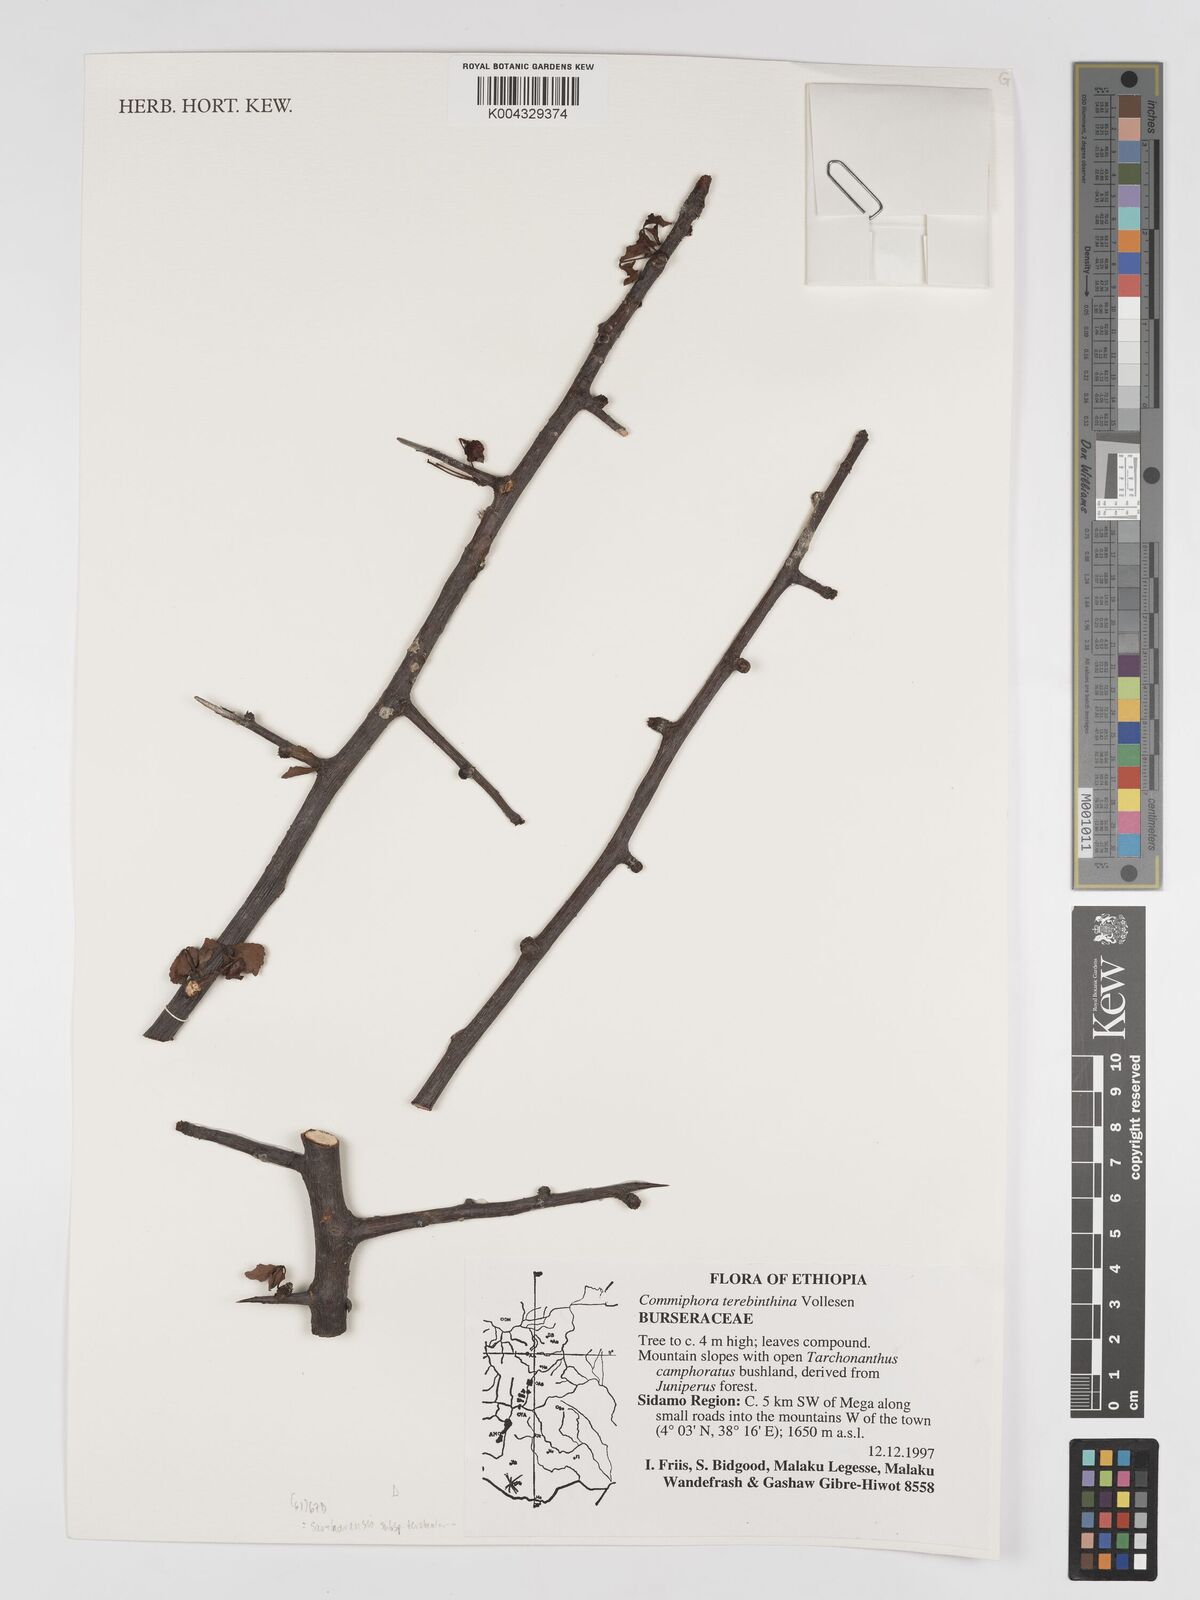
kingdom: Plantae
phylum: Tracheophyta
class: Magnoliopsida
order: Sapindales
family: Burseraceae
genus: Commiphora
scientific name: Commiphora samharensis
